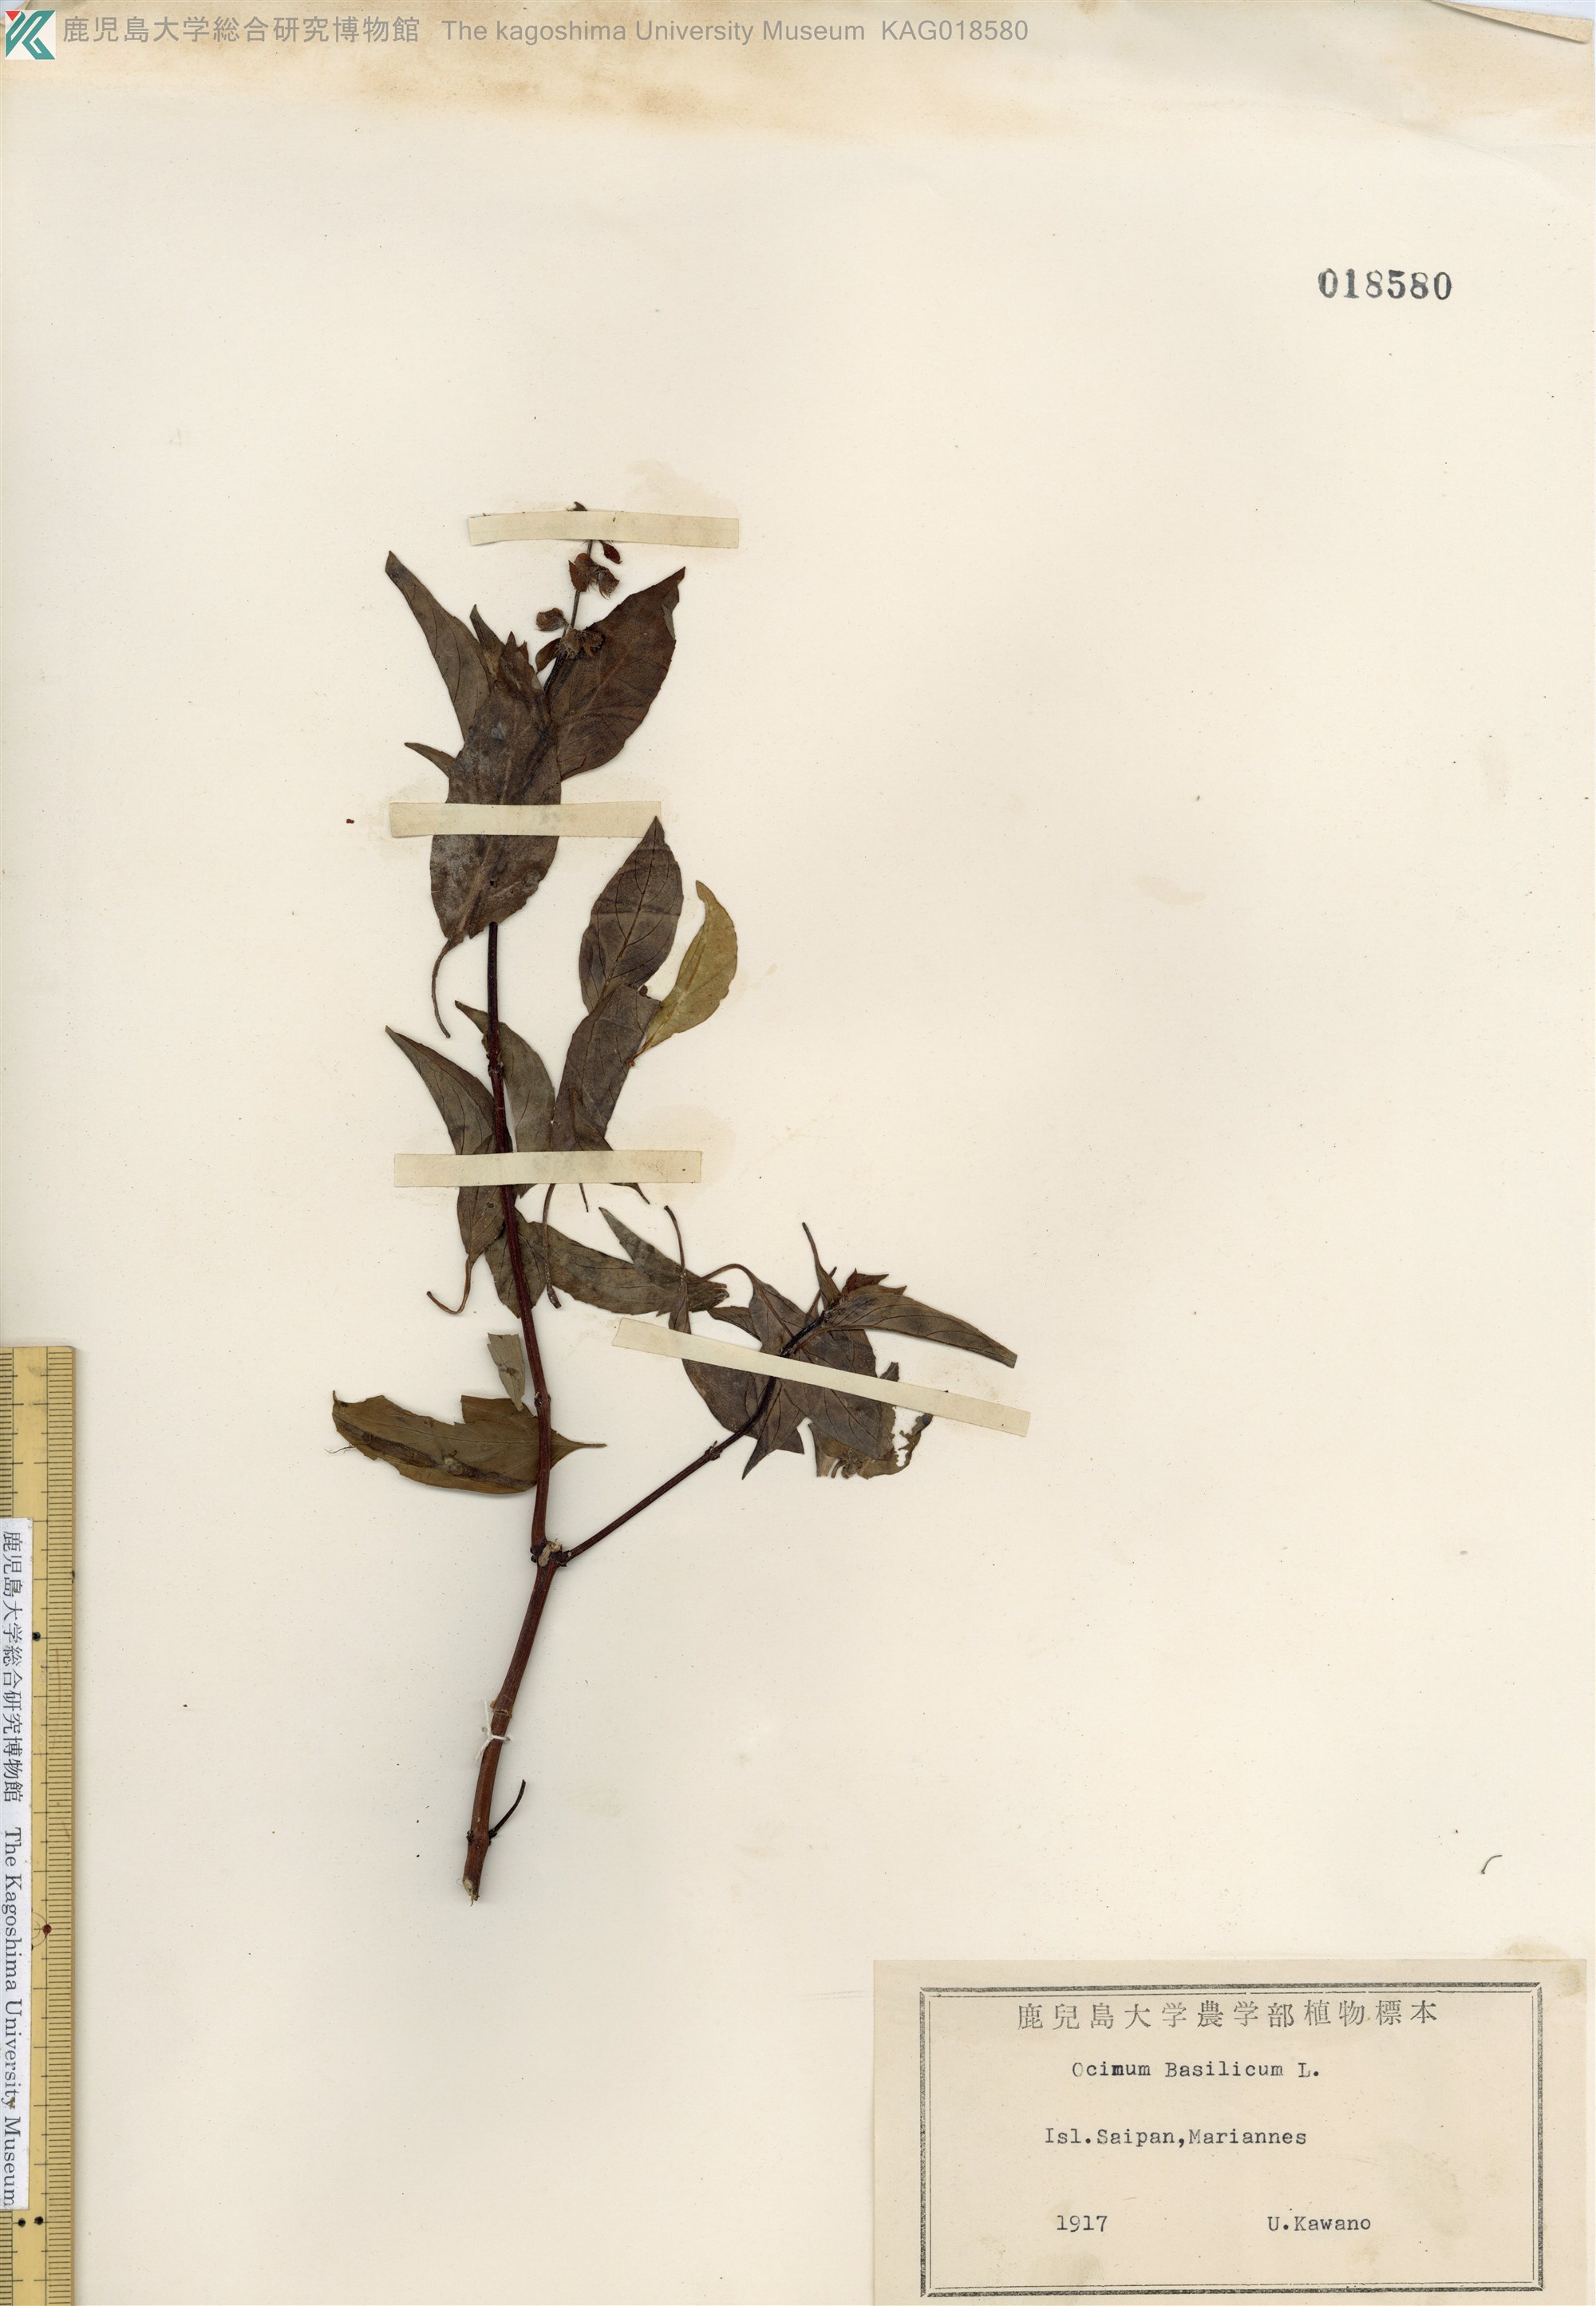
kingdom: Plantae
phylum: Tracheophyta
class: Magnoliopsida
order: Lamiales
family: Lamiaceae
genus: Ocimum
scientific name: Ocimum basilicum
